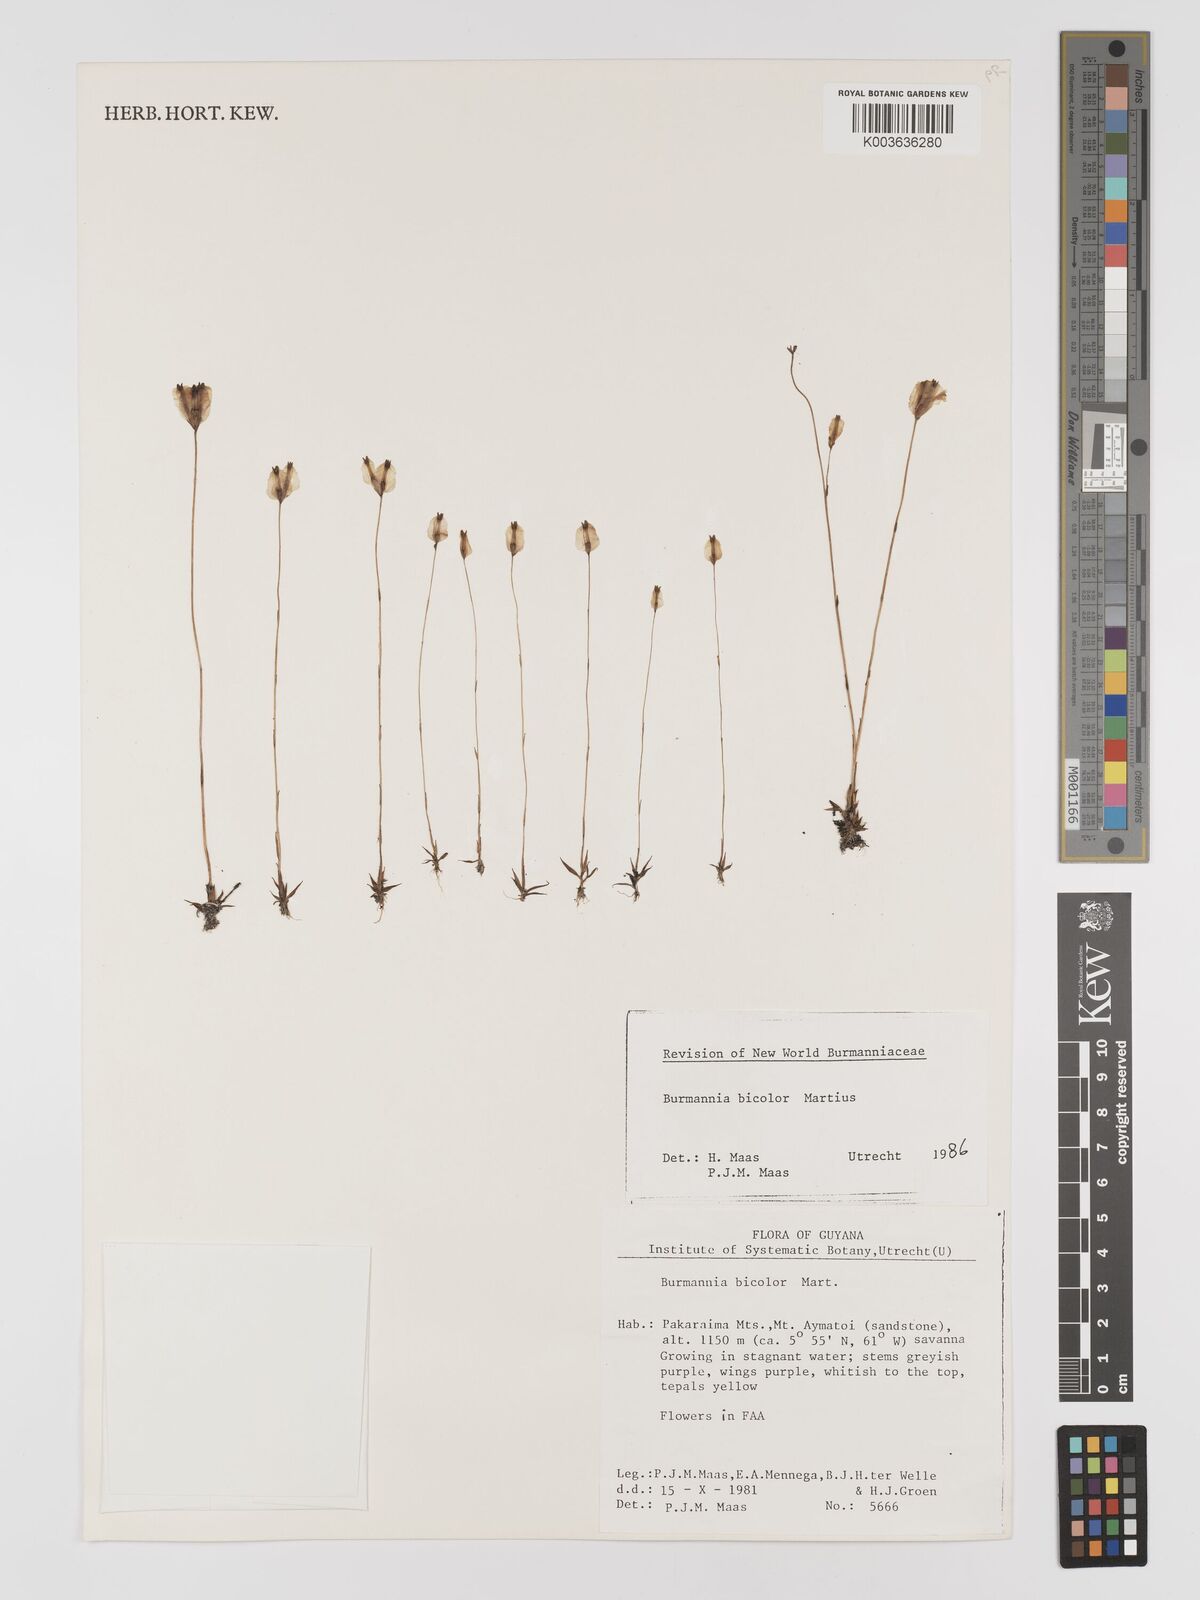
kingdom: Plantae
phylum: Tracheophyta
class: Liliopsida
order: Dioscoreales
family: Burmanniaceae
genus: Burmannia
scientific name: Burmannia bicolor
